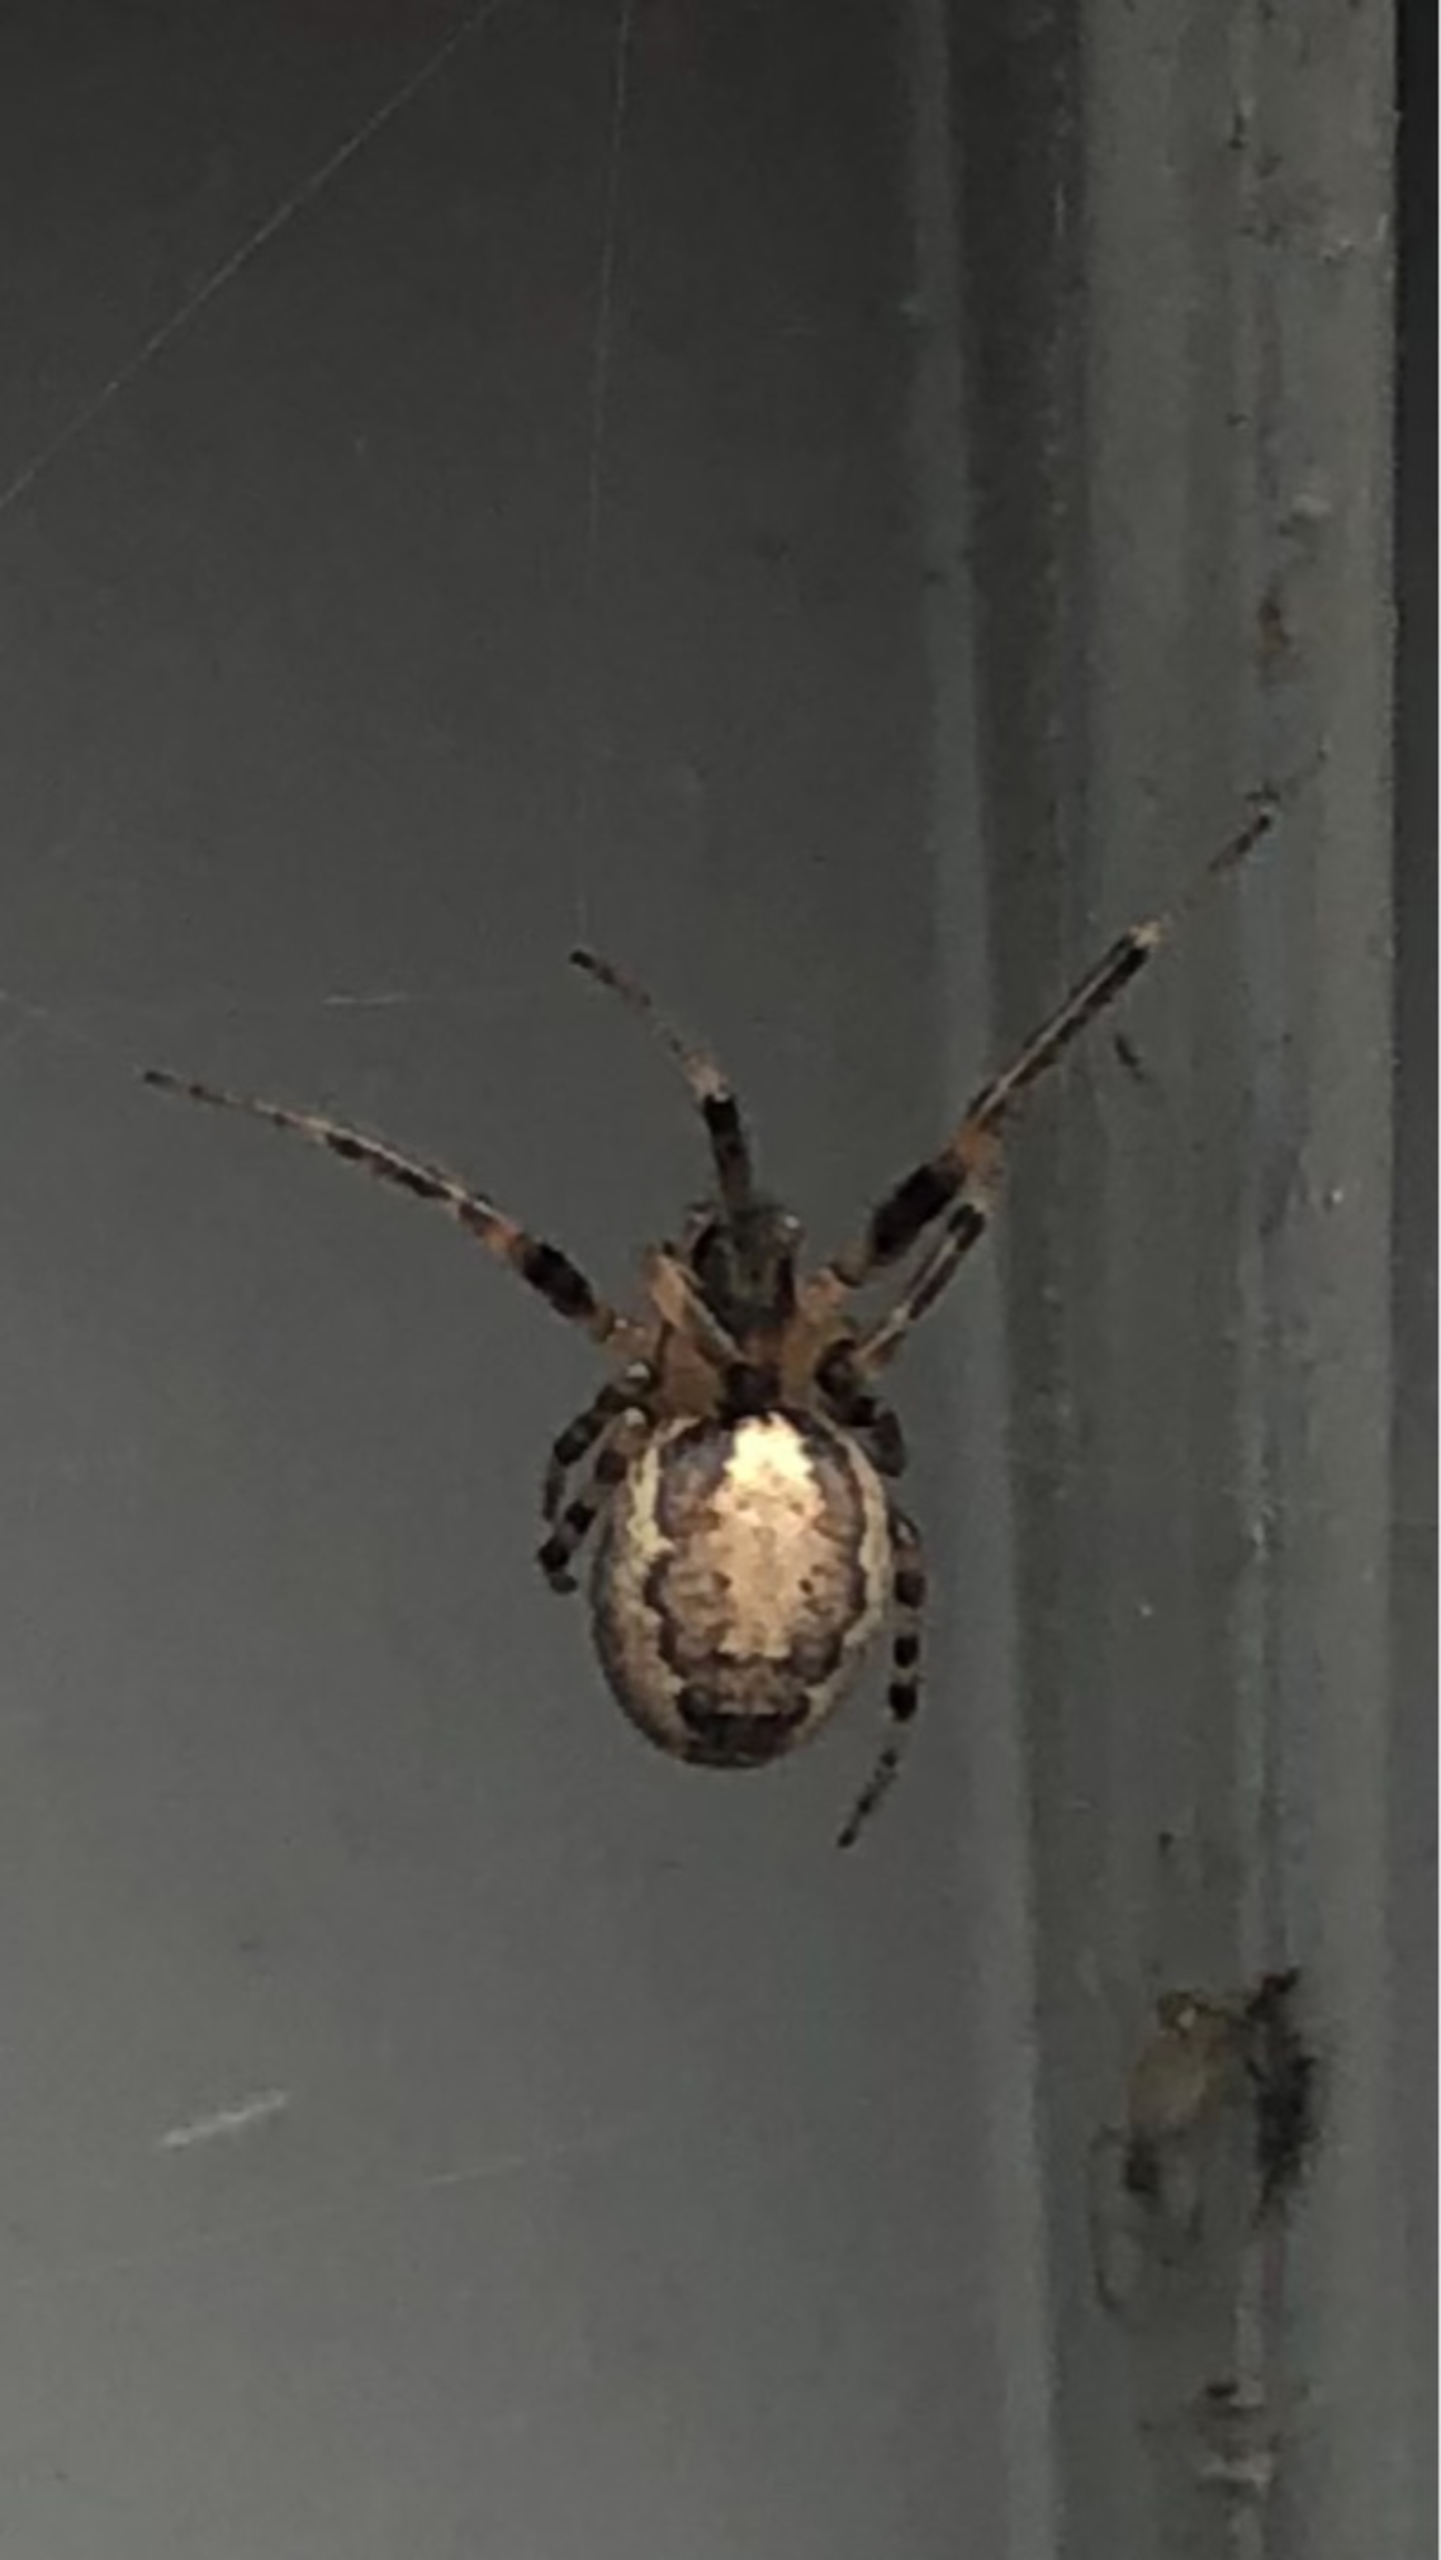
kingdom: Animalia
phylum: Arthropoda
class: Arachnida
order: Araneae
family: Araneidae
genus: Zygiella
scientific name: Zygiella x-notata
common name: Grå sektoredderkop
